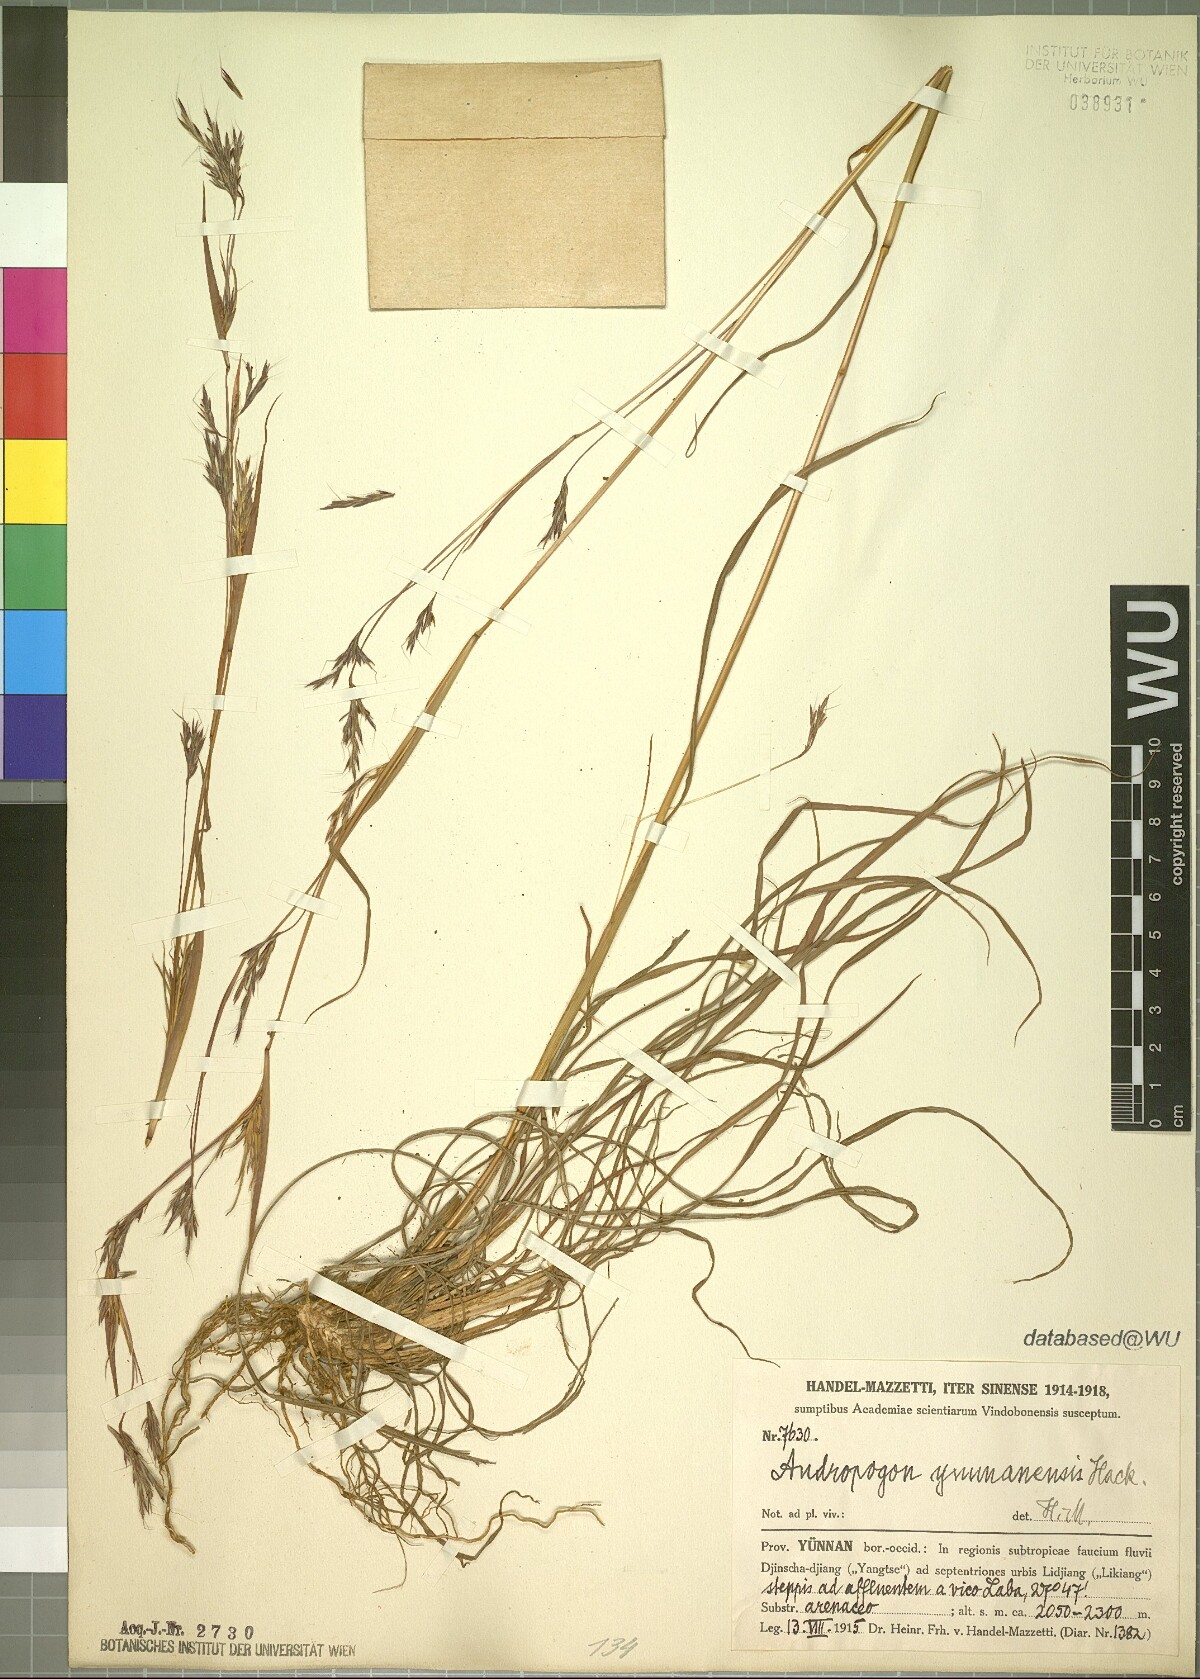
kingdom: Plantae
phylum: Tracheophyta
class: Liliopsida
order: Poales
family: Poaceae
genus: Andropogon
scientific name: Andropogon munroi
